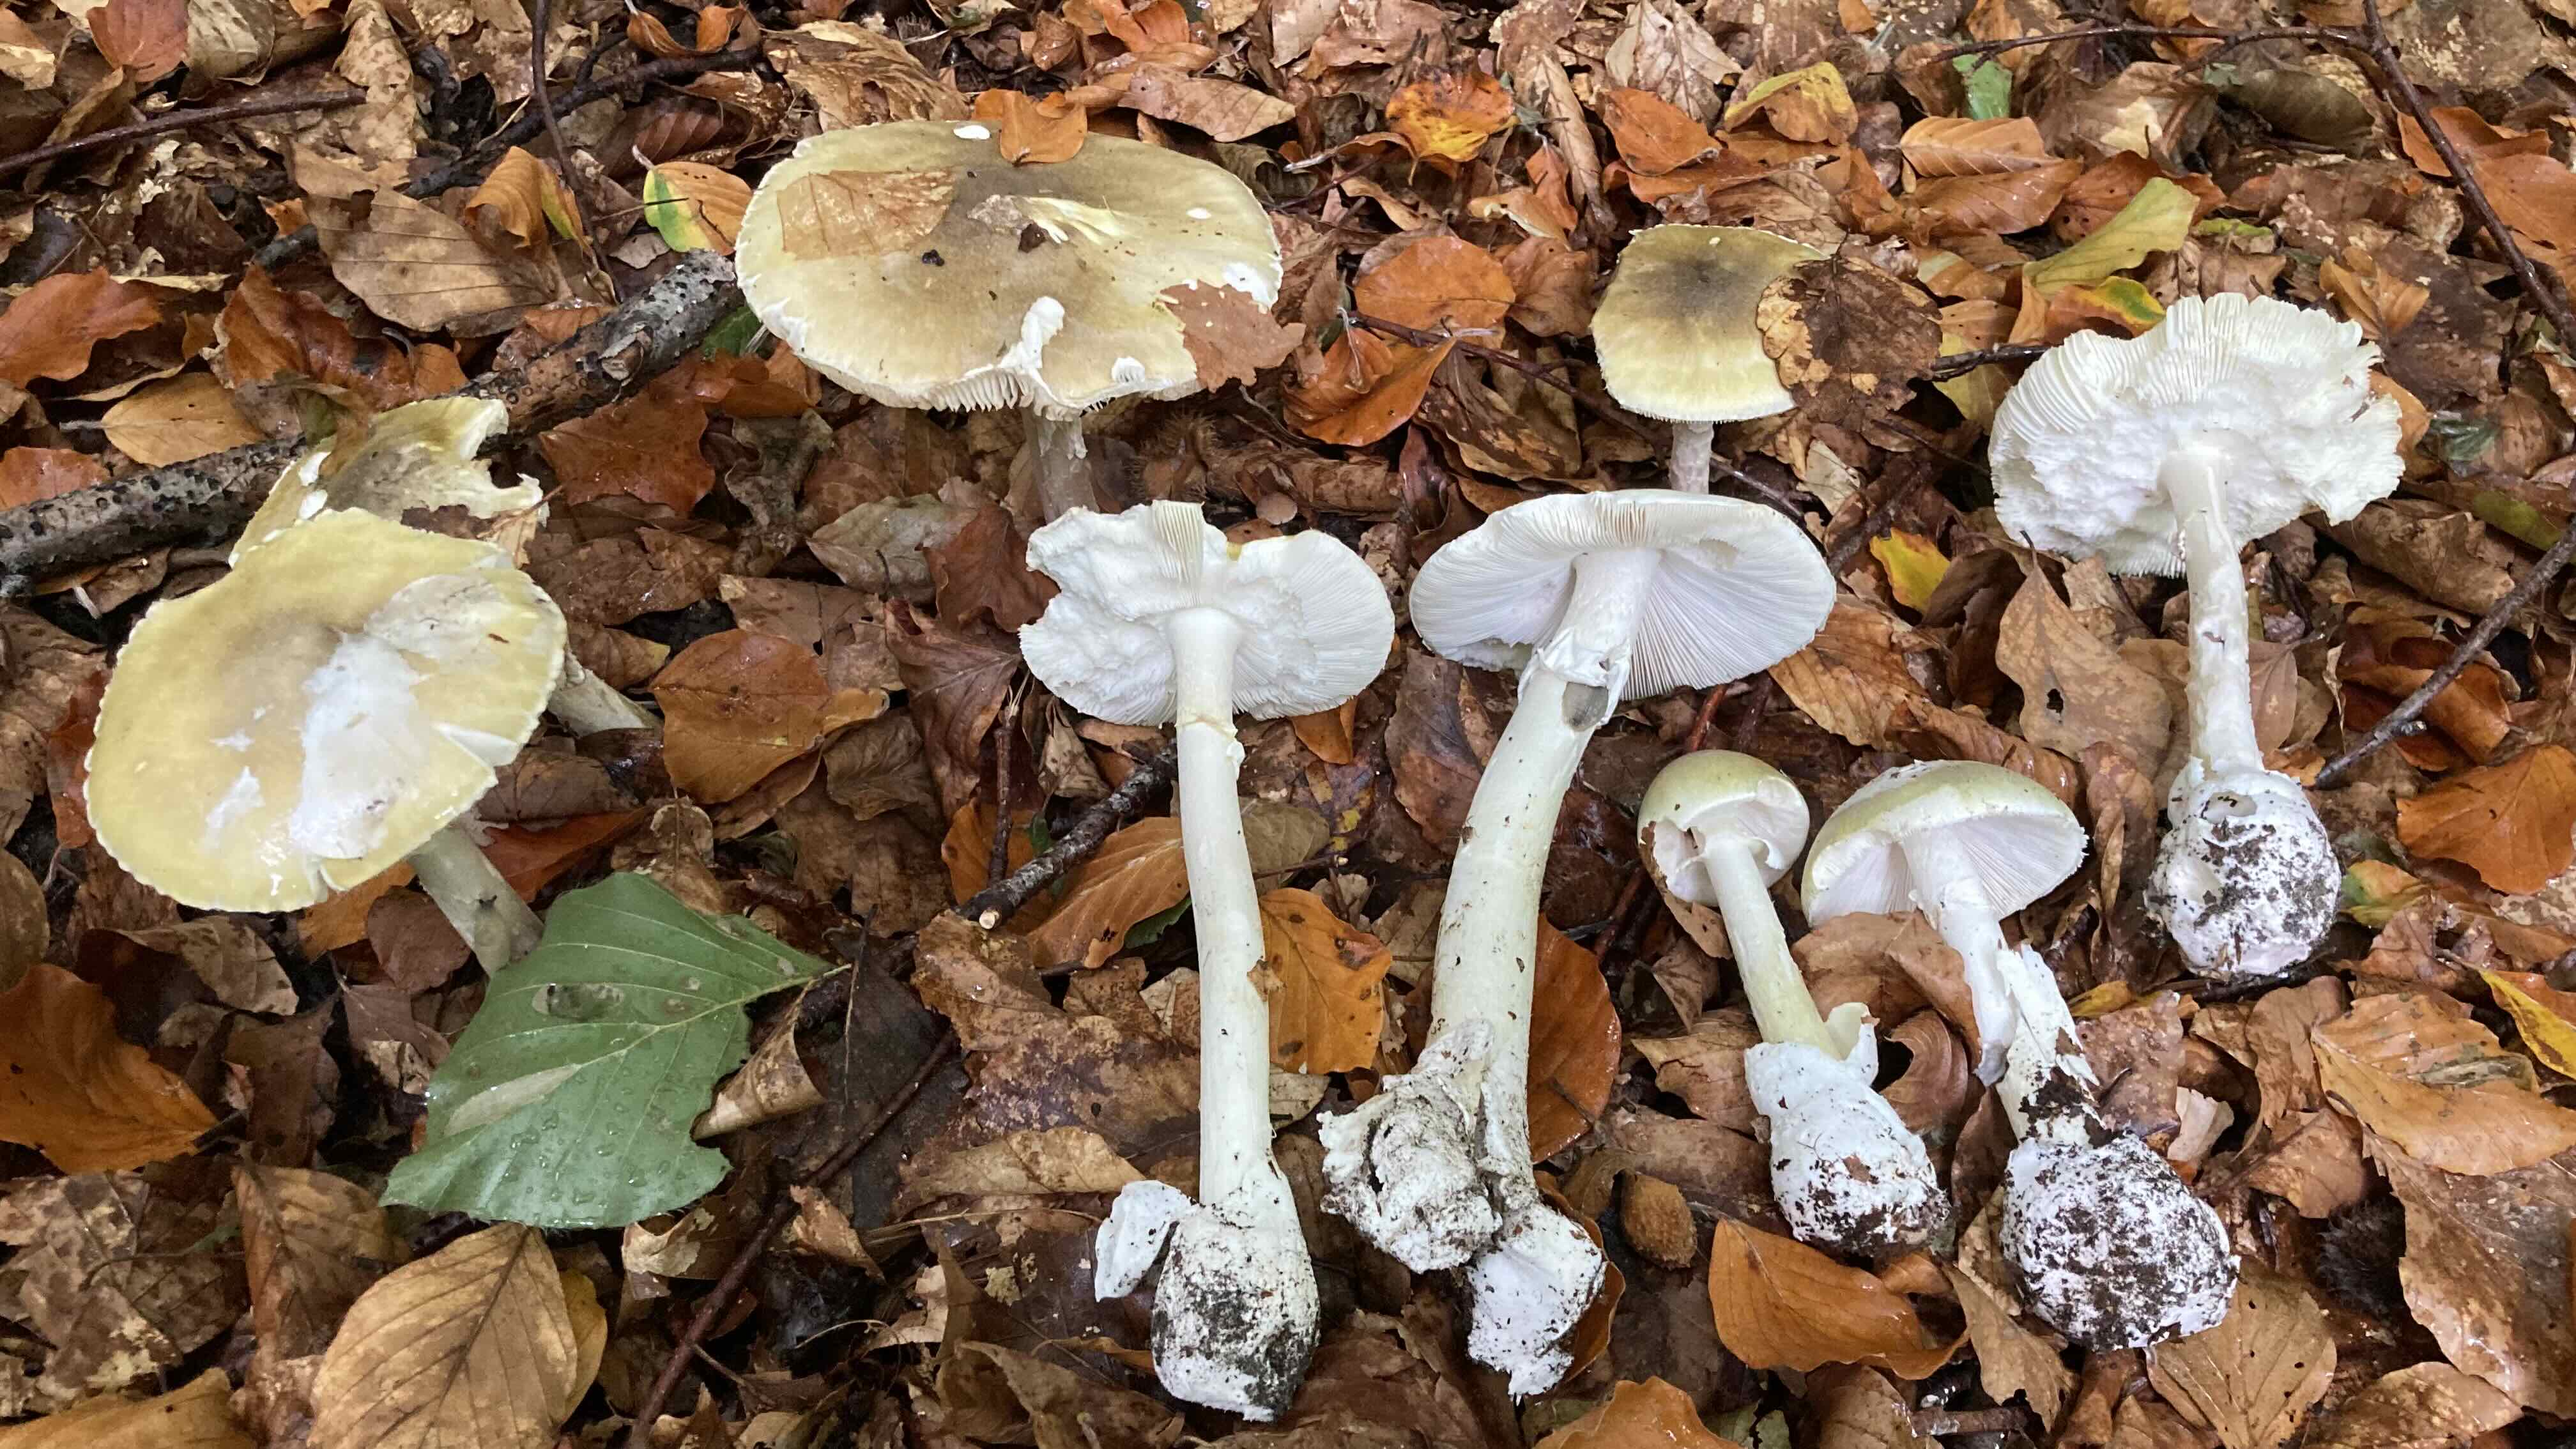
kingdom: Fungi
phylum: Basidiomycota
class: Agaricomycetes
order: Agaricales
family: Amanitaceae
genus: Amanita
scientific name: Amanita phalloides
